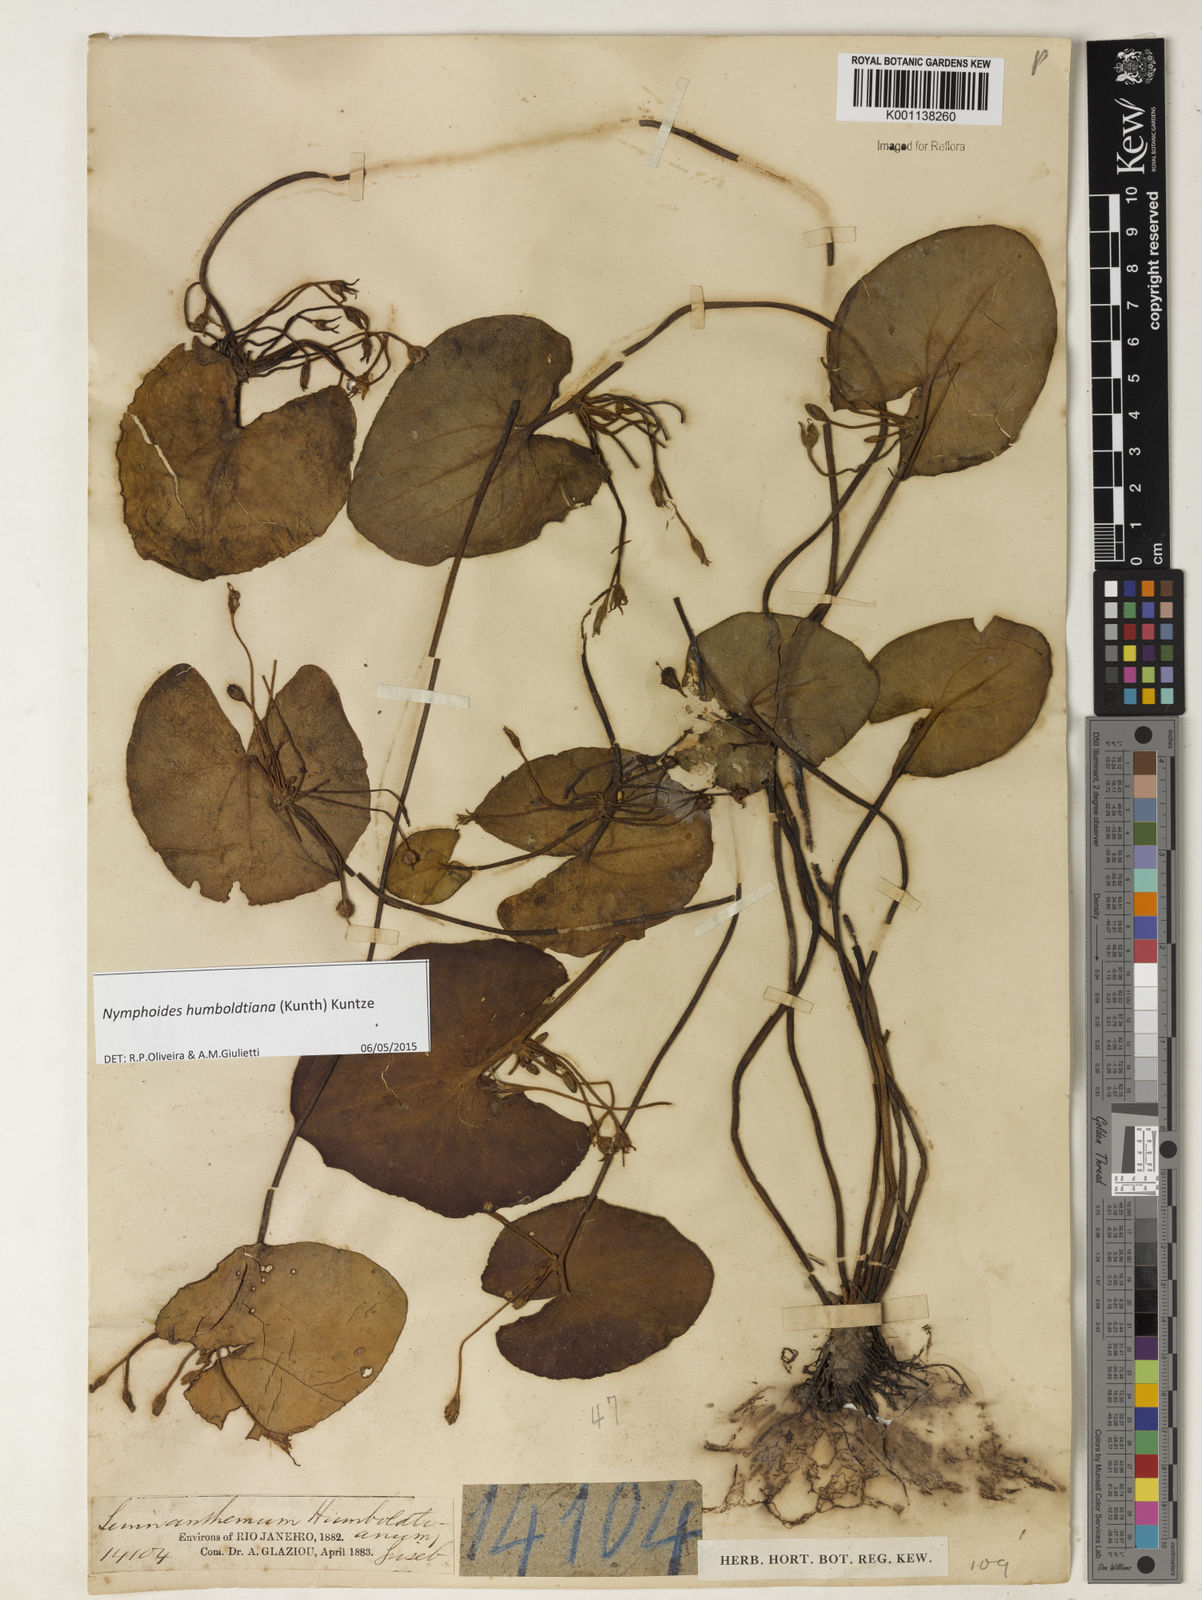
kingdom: Plantae
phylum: Tracheophyta
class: Magnoliopsida
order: Asterales
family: Menyanthaceae
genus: Nymphoides
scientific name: Nymphoides humboldtiana
